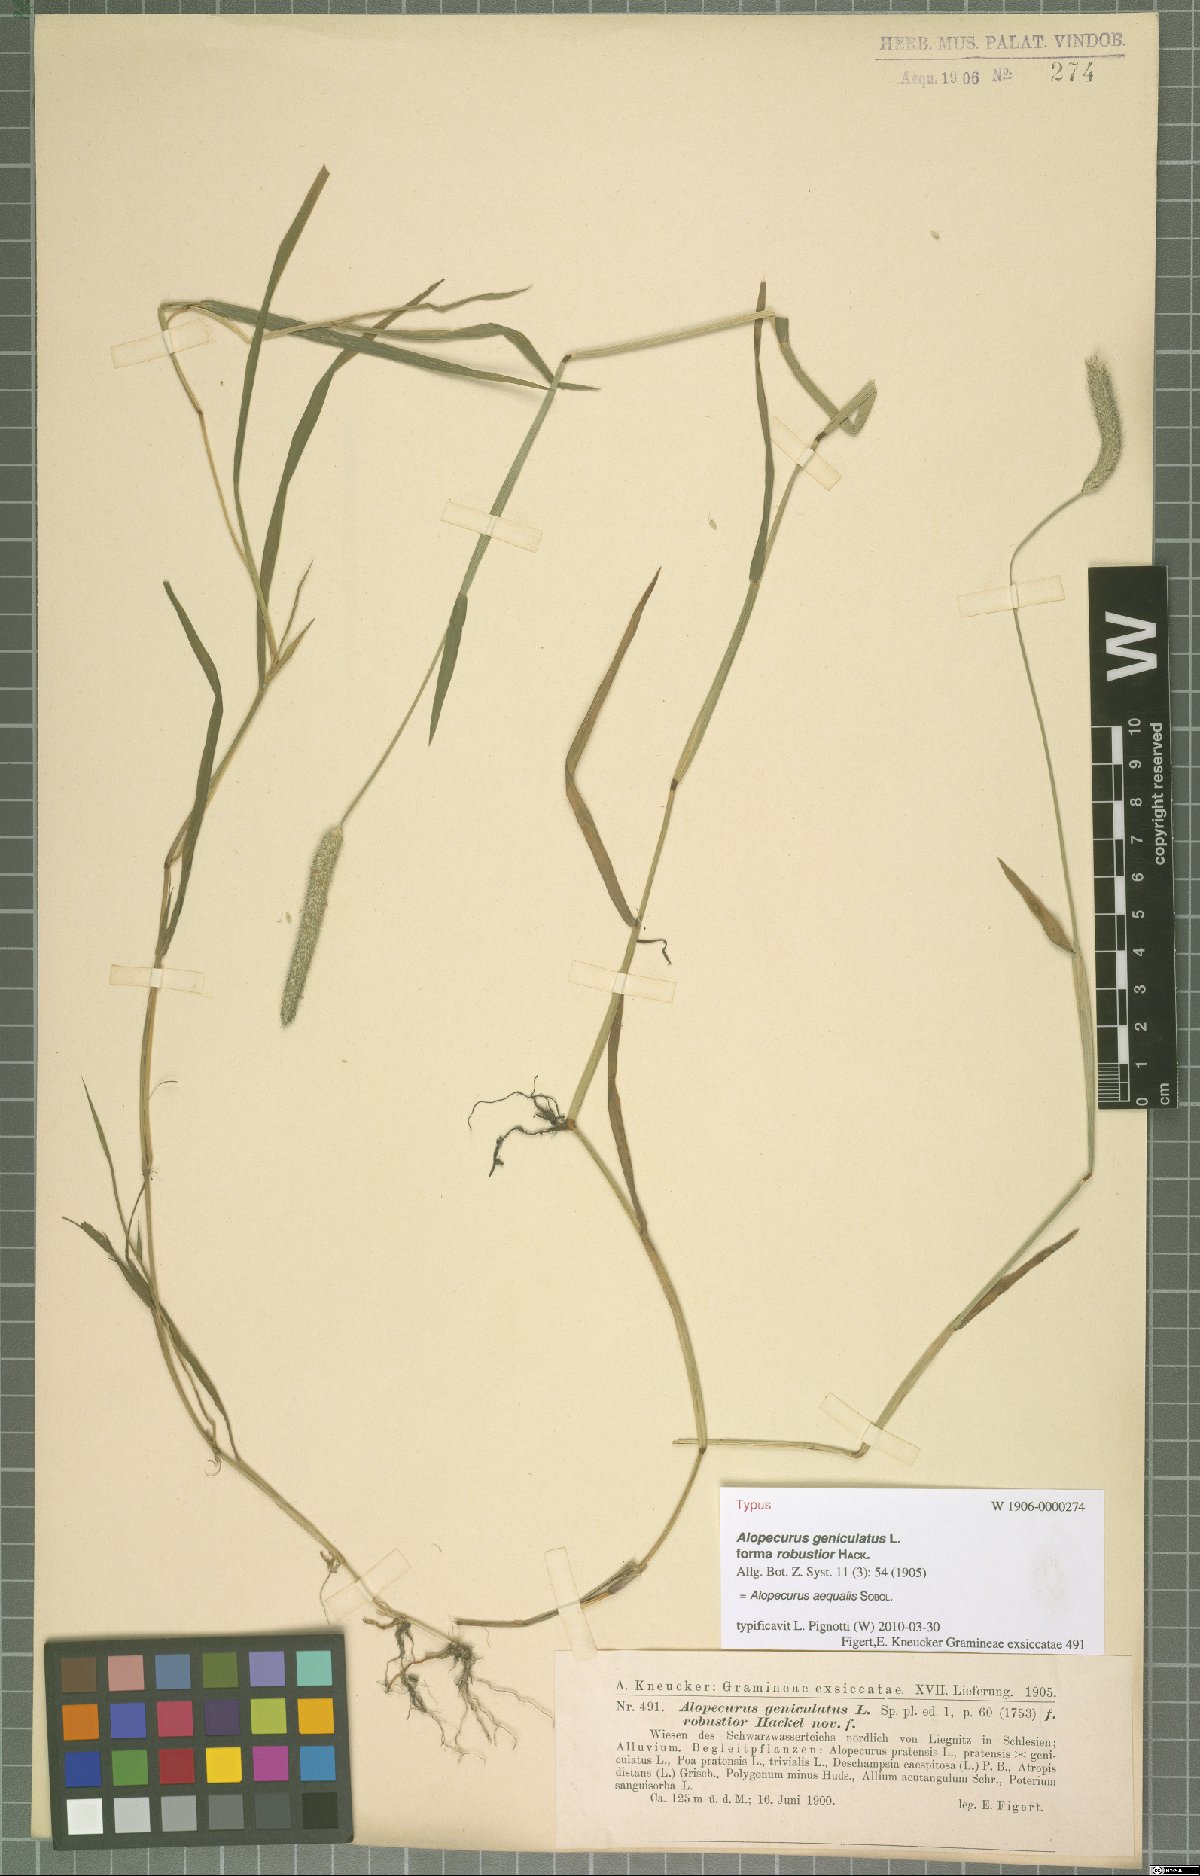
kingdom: Plantae
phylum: Tracheophyta
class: Liliopsida
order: Poales
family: Poaceae
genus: Alopecurus
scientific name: Alopecurus aequalis
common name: Orange foxtail
